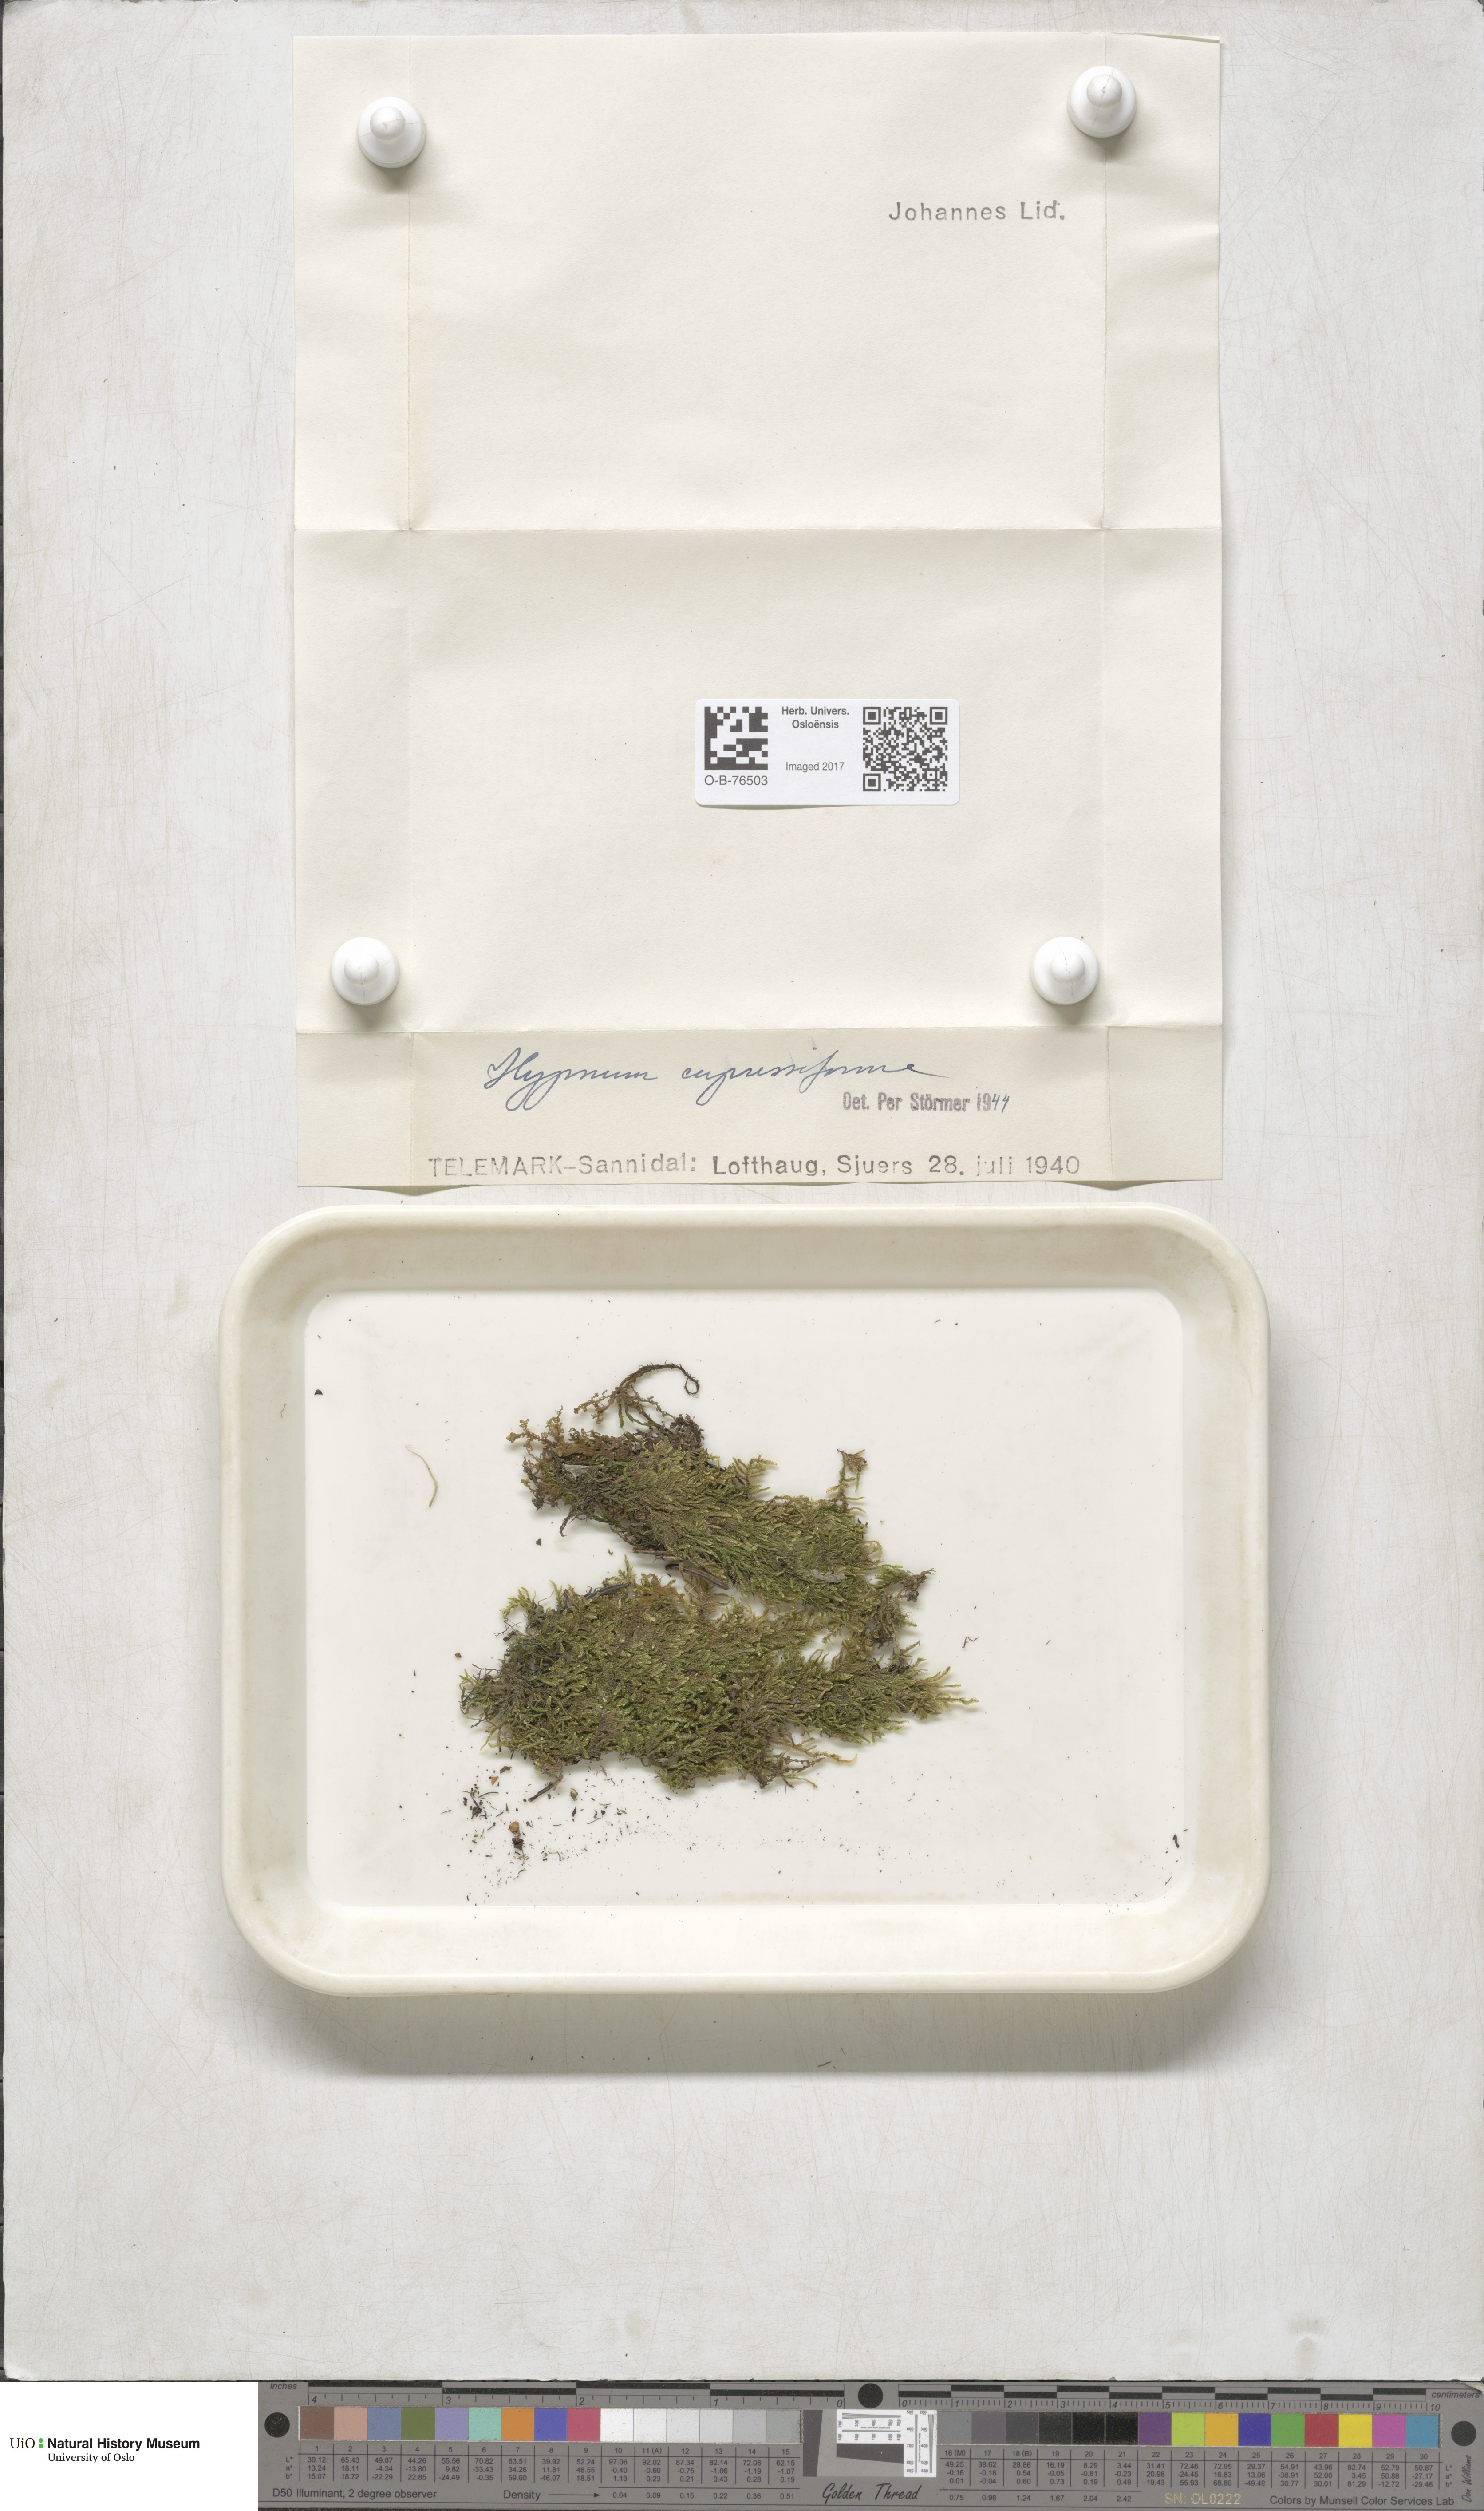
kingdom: Plantae
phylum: Bryophyta
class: Bryopsida
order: Hypnales
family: Hypnaceae
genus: Hypnum
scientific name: Hypnum cupressiforme
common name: Cypress-leaved plait-moss
